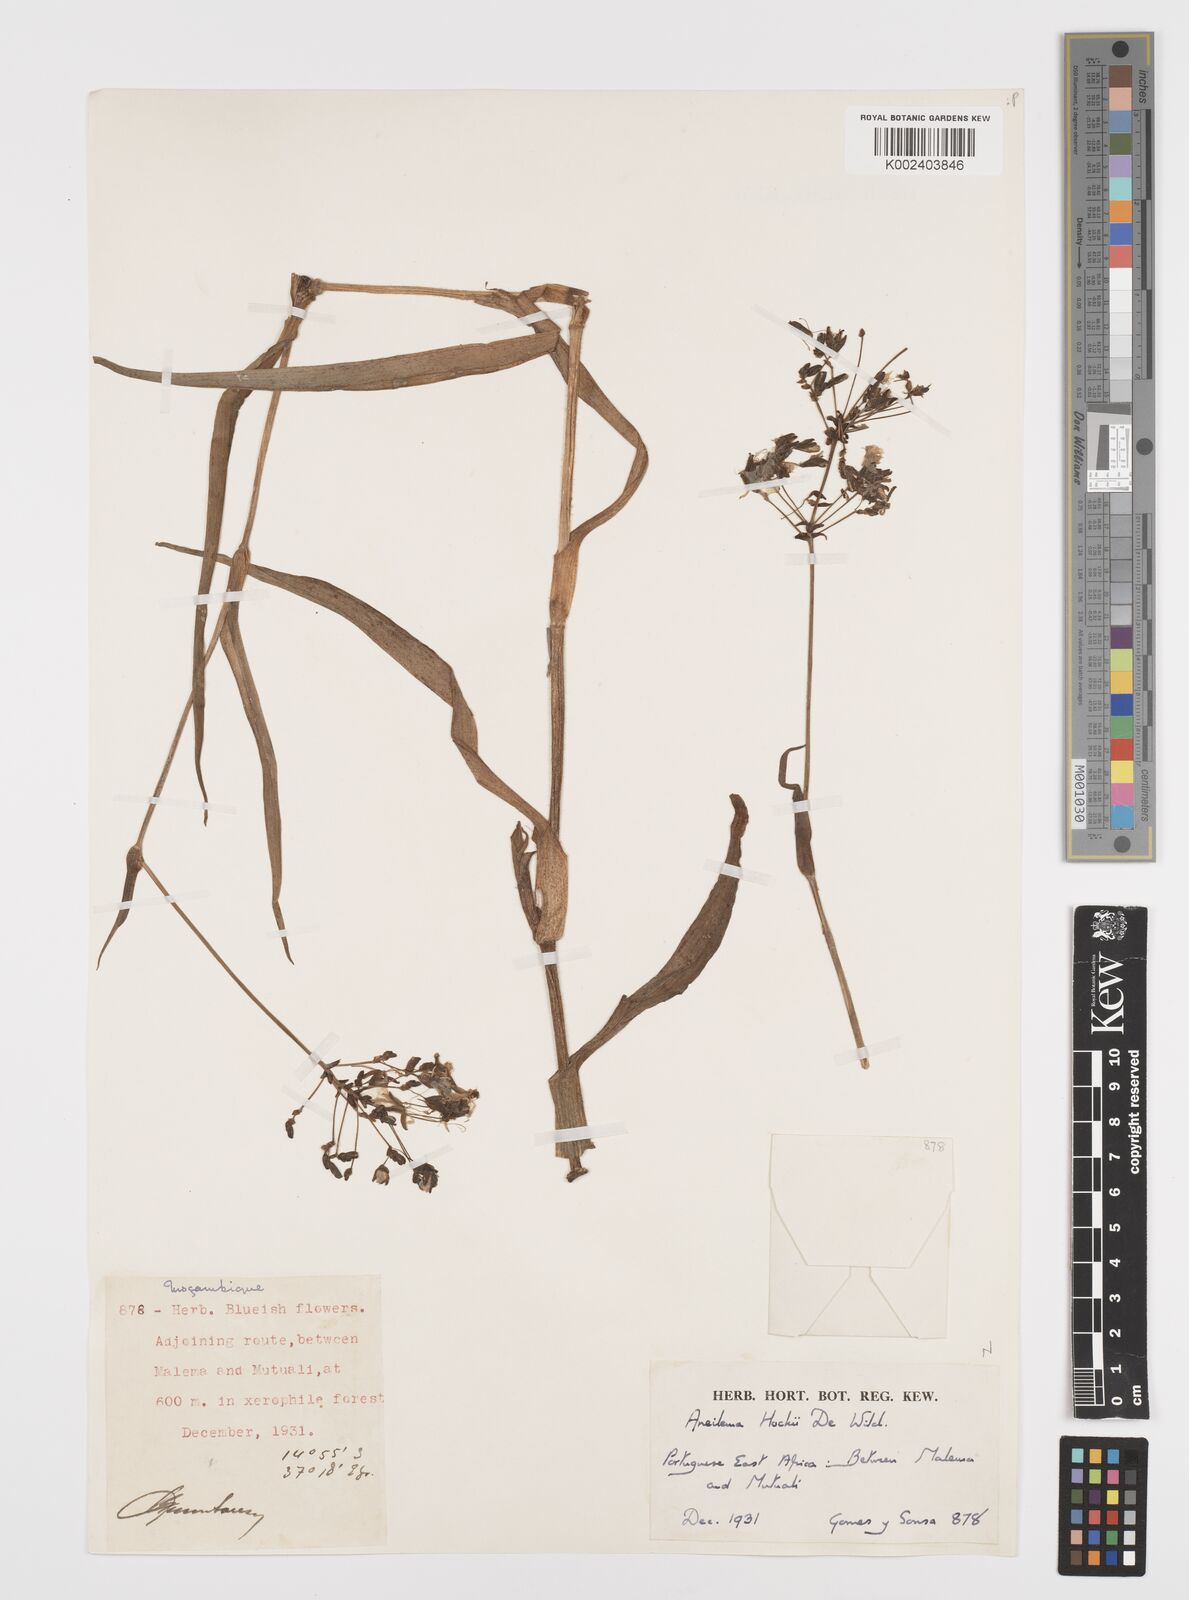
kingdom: Plantae
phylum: Tracheophyta
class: Liliopsida
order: Commelinales
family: Commelinaceae
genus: Aneilema
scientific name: Aneilema hockii
